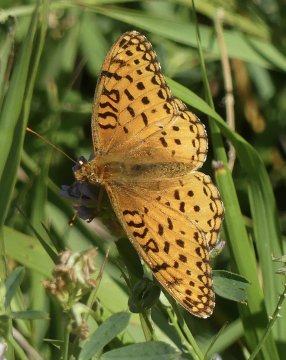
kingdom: Animalia
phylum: Arthropoda
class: Insecta
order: Lepidoptera
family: Nymphalidae
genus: Speyeria
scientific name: Speyeria aphrodite
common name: Aphrodite Fritillary
